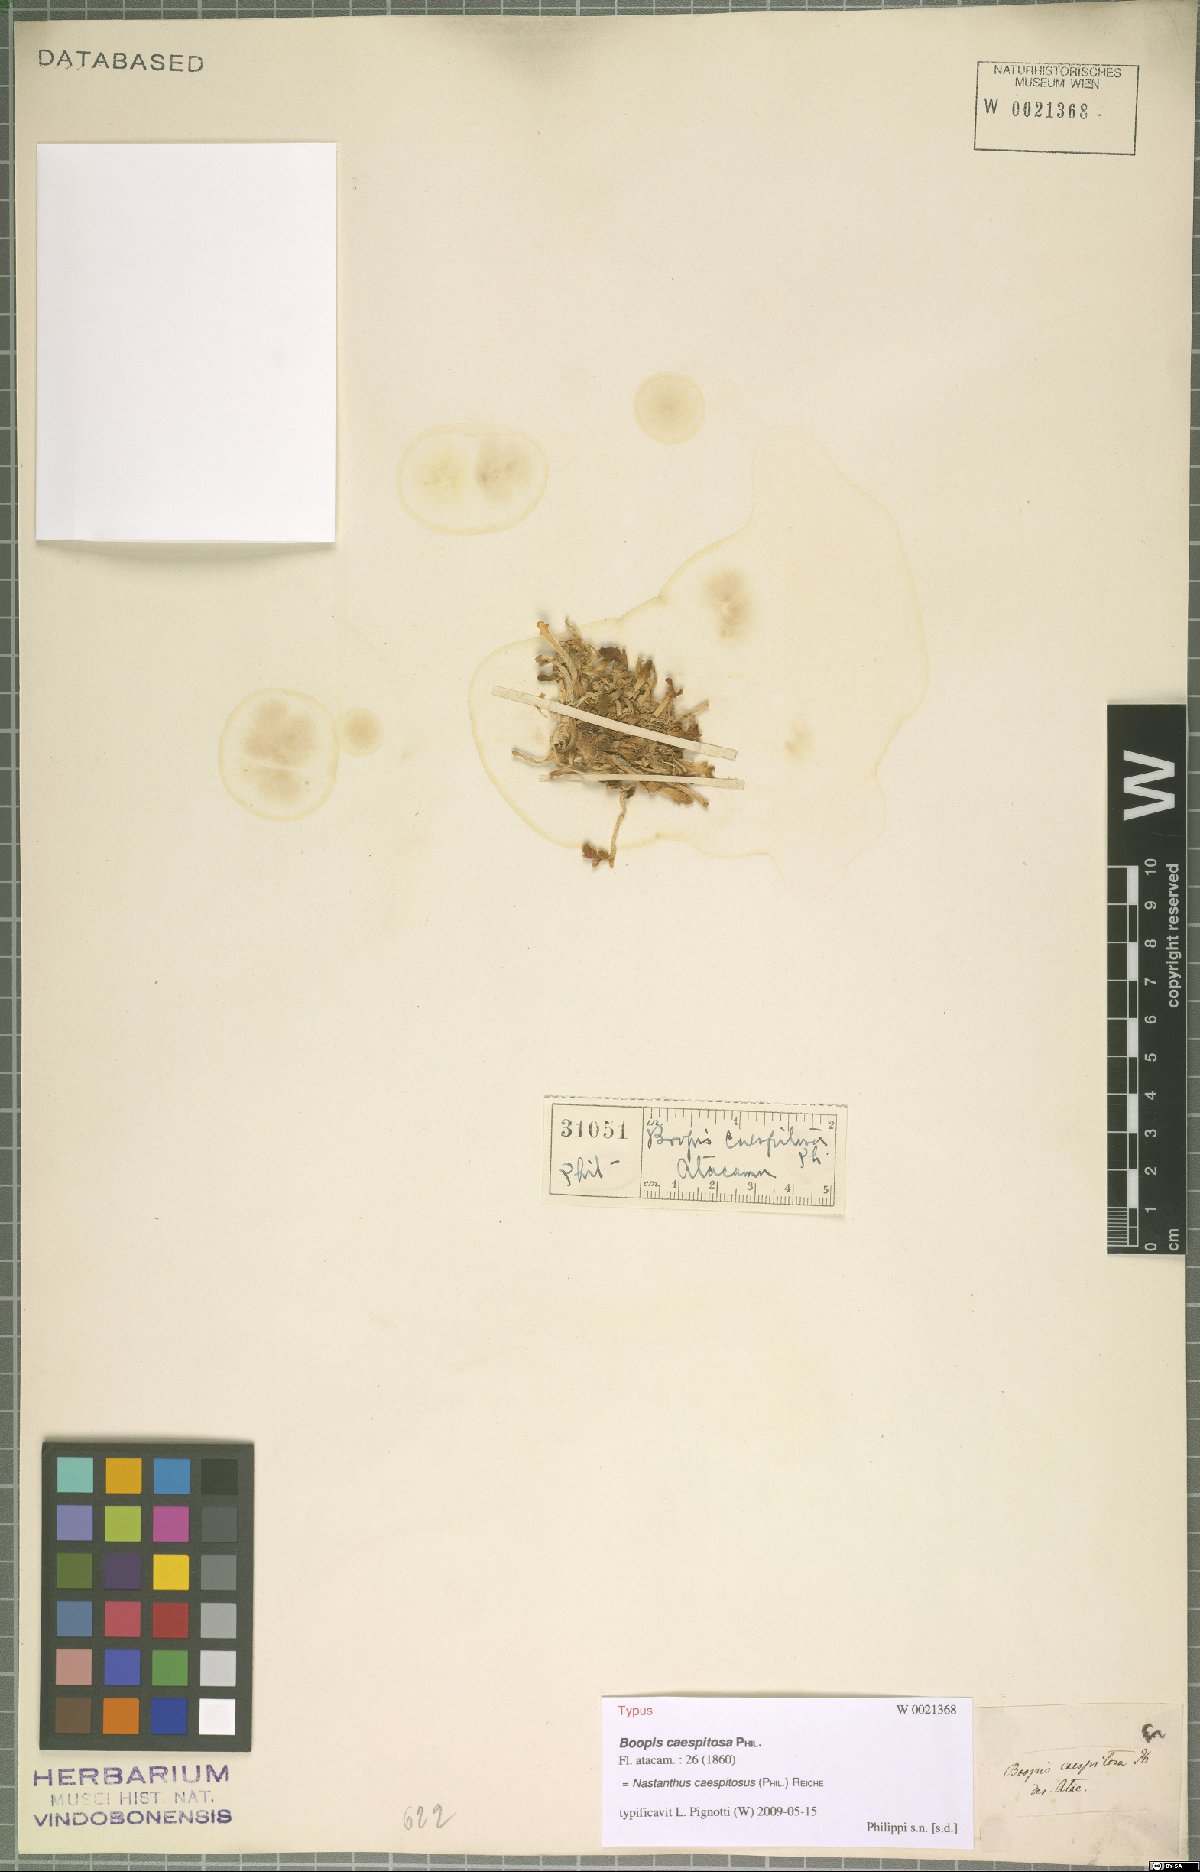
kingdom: Plantae
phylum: Tracheophyta
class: Magnoliopsida
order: Asterales
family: Calyceraceae
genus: Gamocarpha
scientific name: Gamocarpha caespitosa
